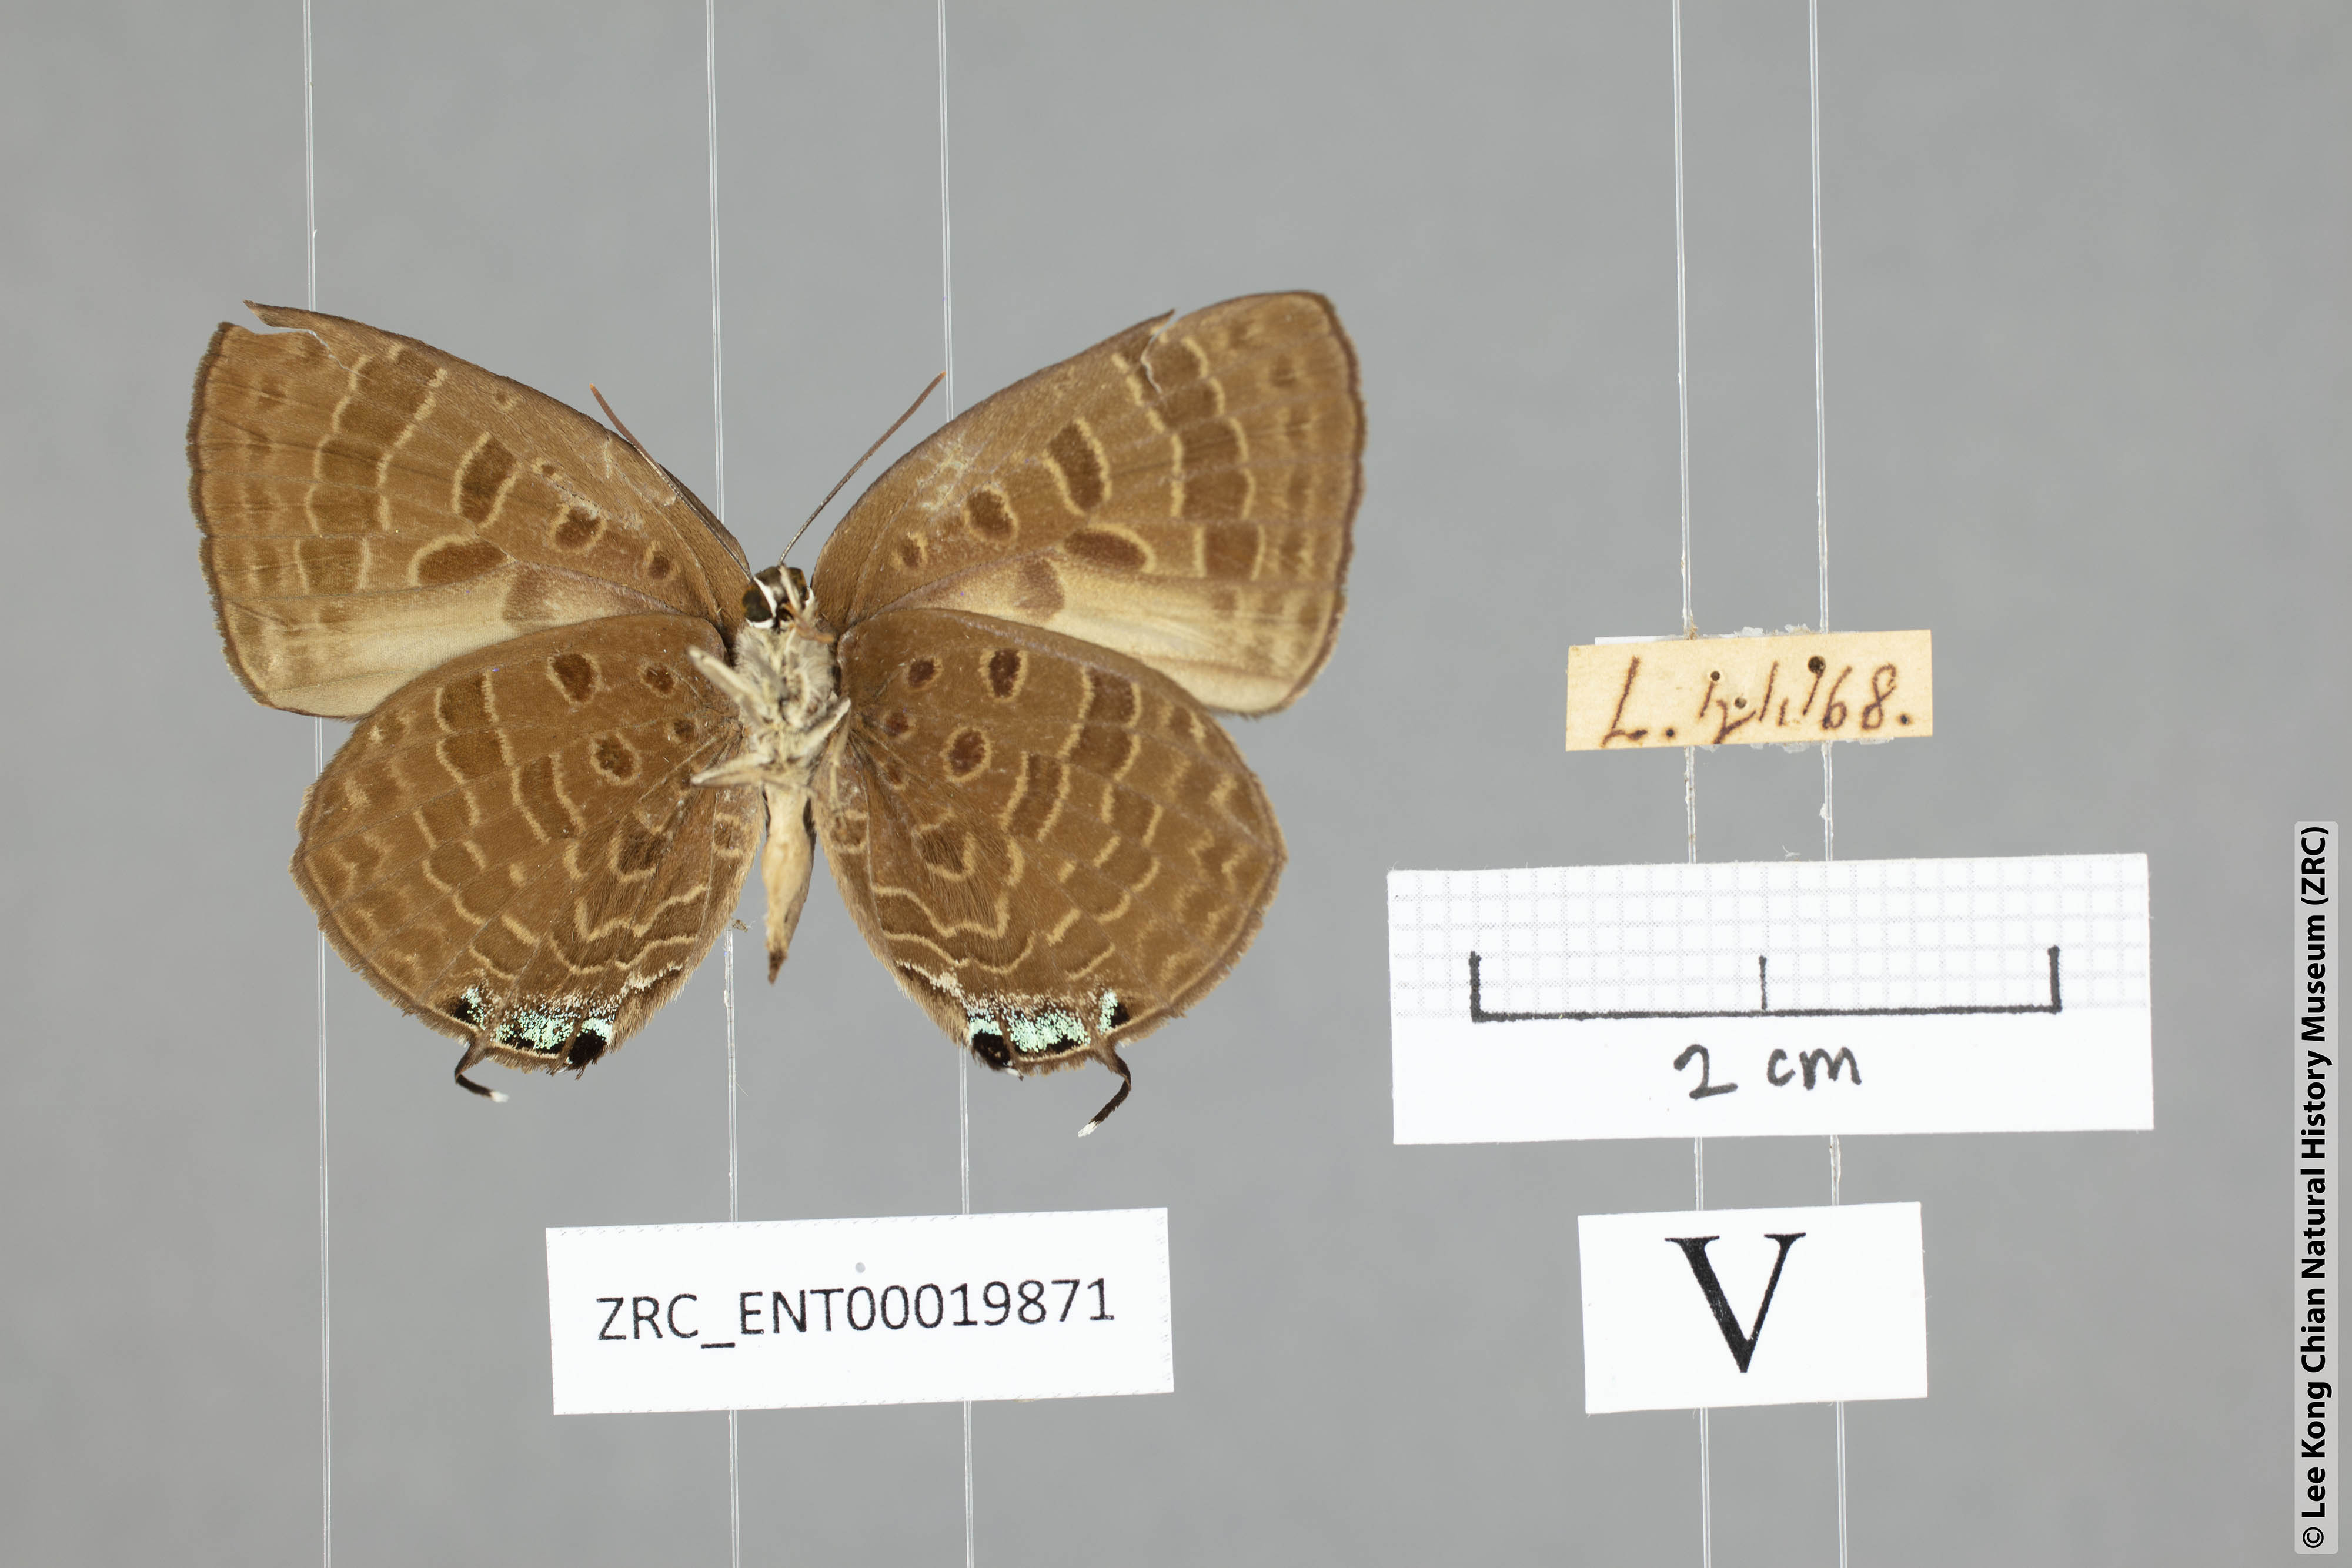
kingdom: Animalia
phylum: Arthropoda
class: Insecta
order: Lepidoptera
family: Lycaenidae
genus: Arhopala
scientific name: Arhopala sublustris
